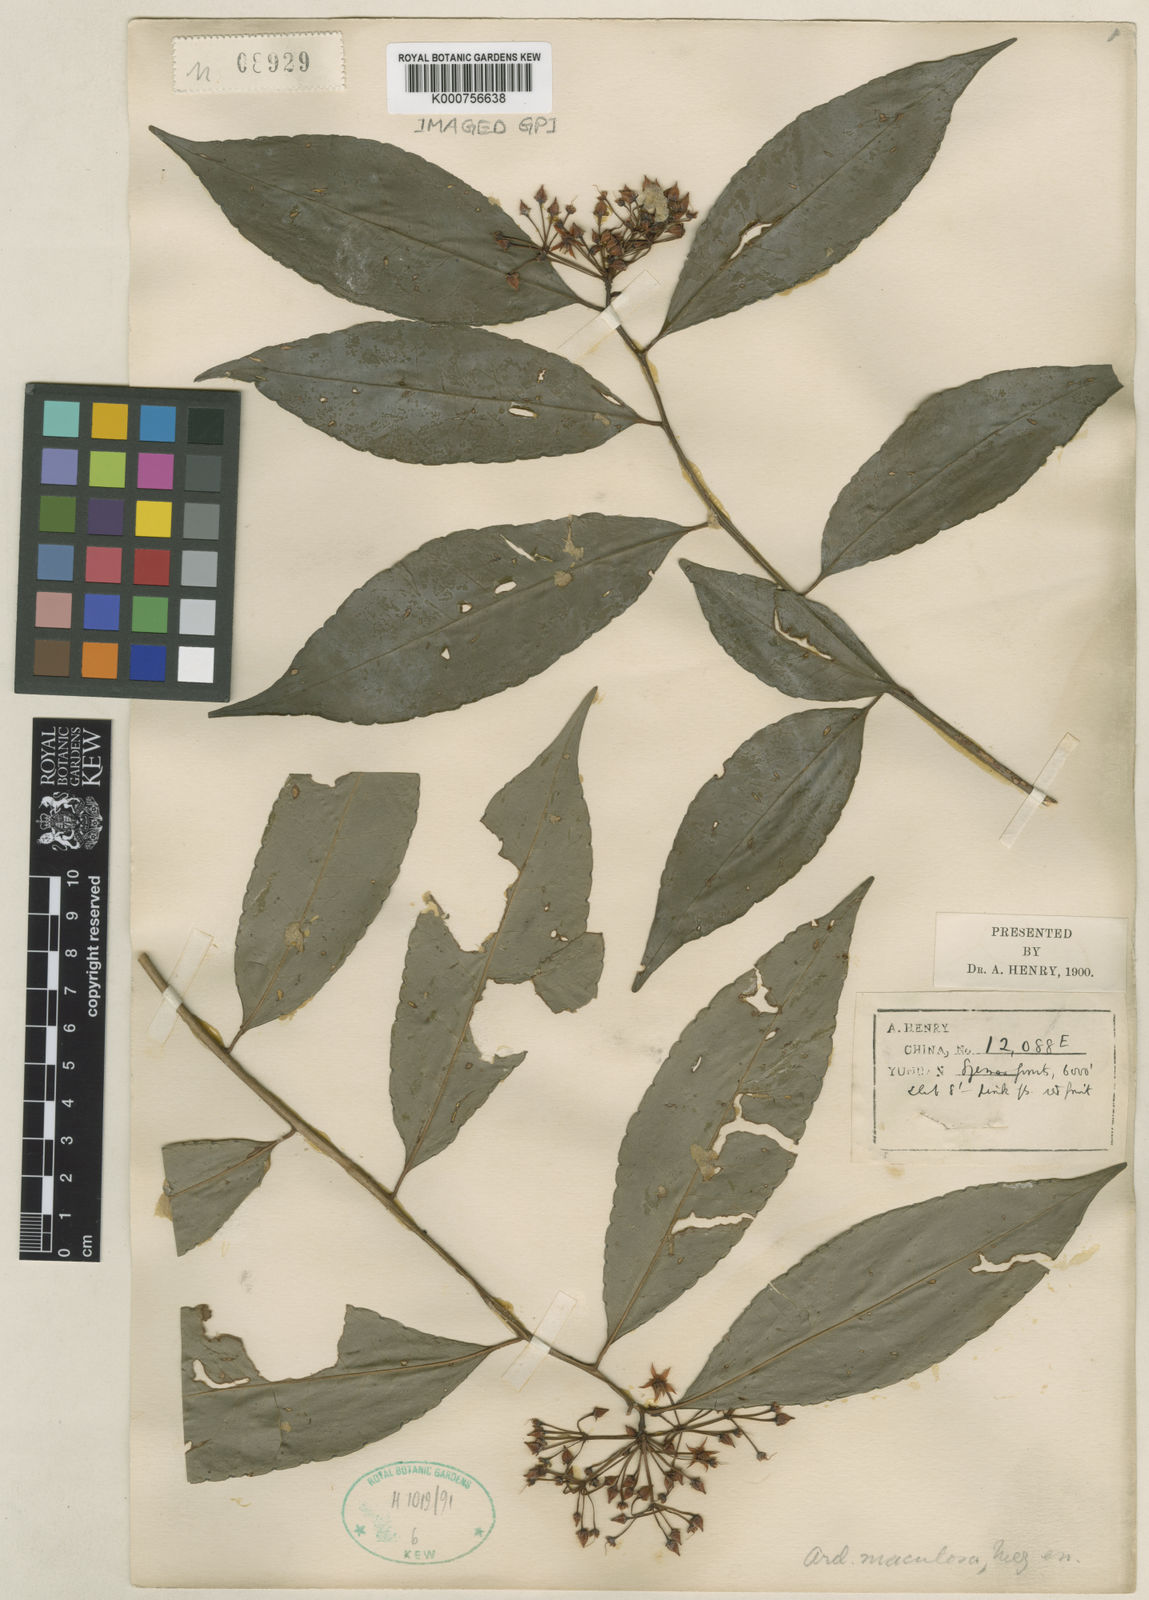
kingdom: Plantae
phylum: Tracheophyta
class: Magnoliopsida
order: Ericales
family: Primulaceae
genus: Ardisia
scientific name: Ardisia polysticta
